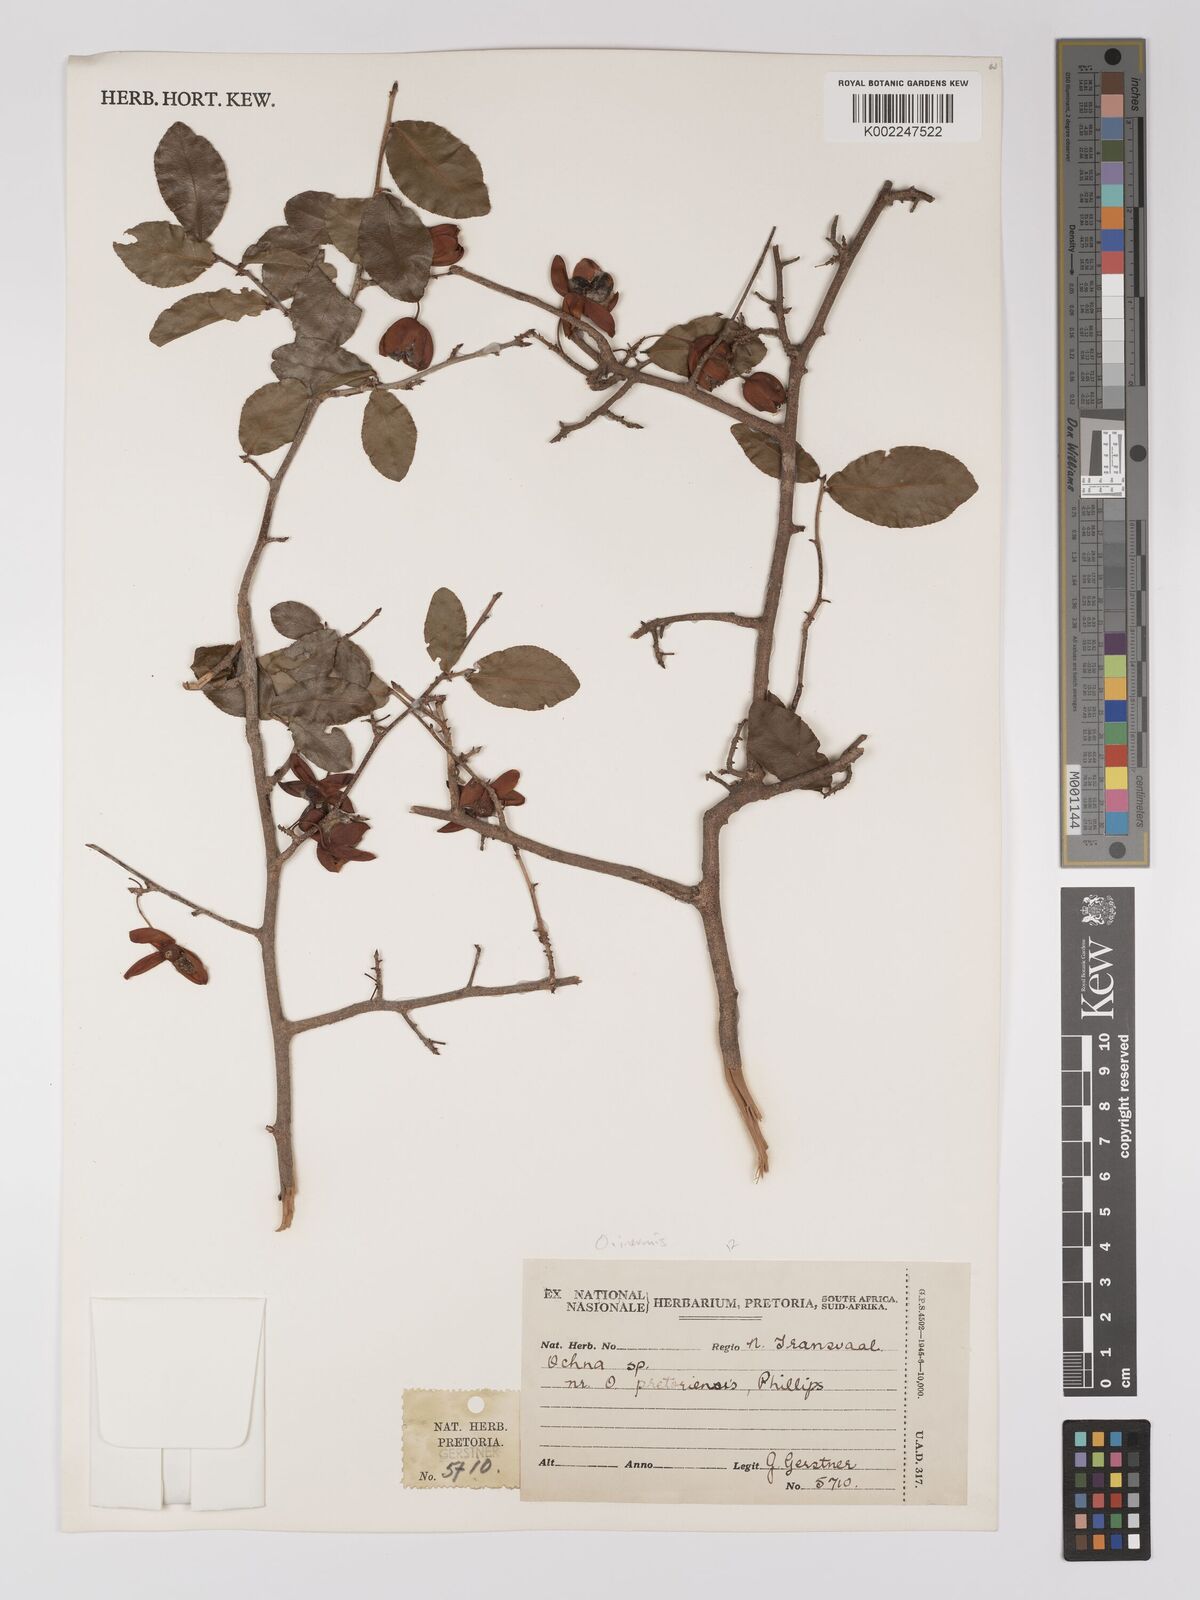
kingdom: Plantae
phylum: Tracheophyta
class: Magnoliopsida
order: Malpighiales
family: Ochnaceae
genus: Ochna
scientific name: Ochna
